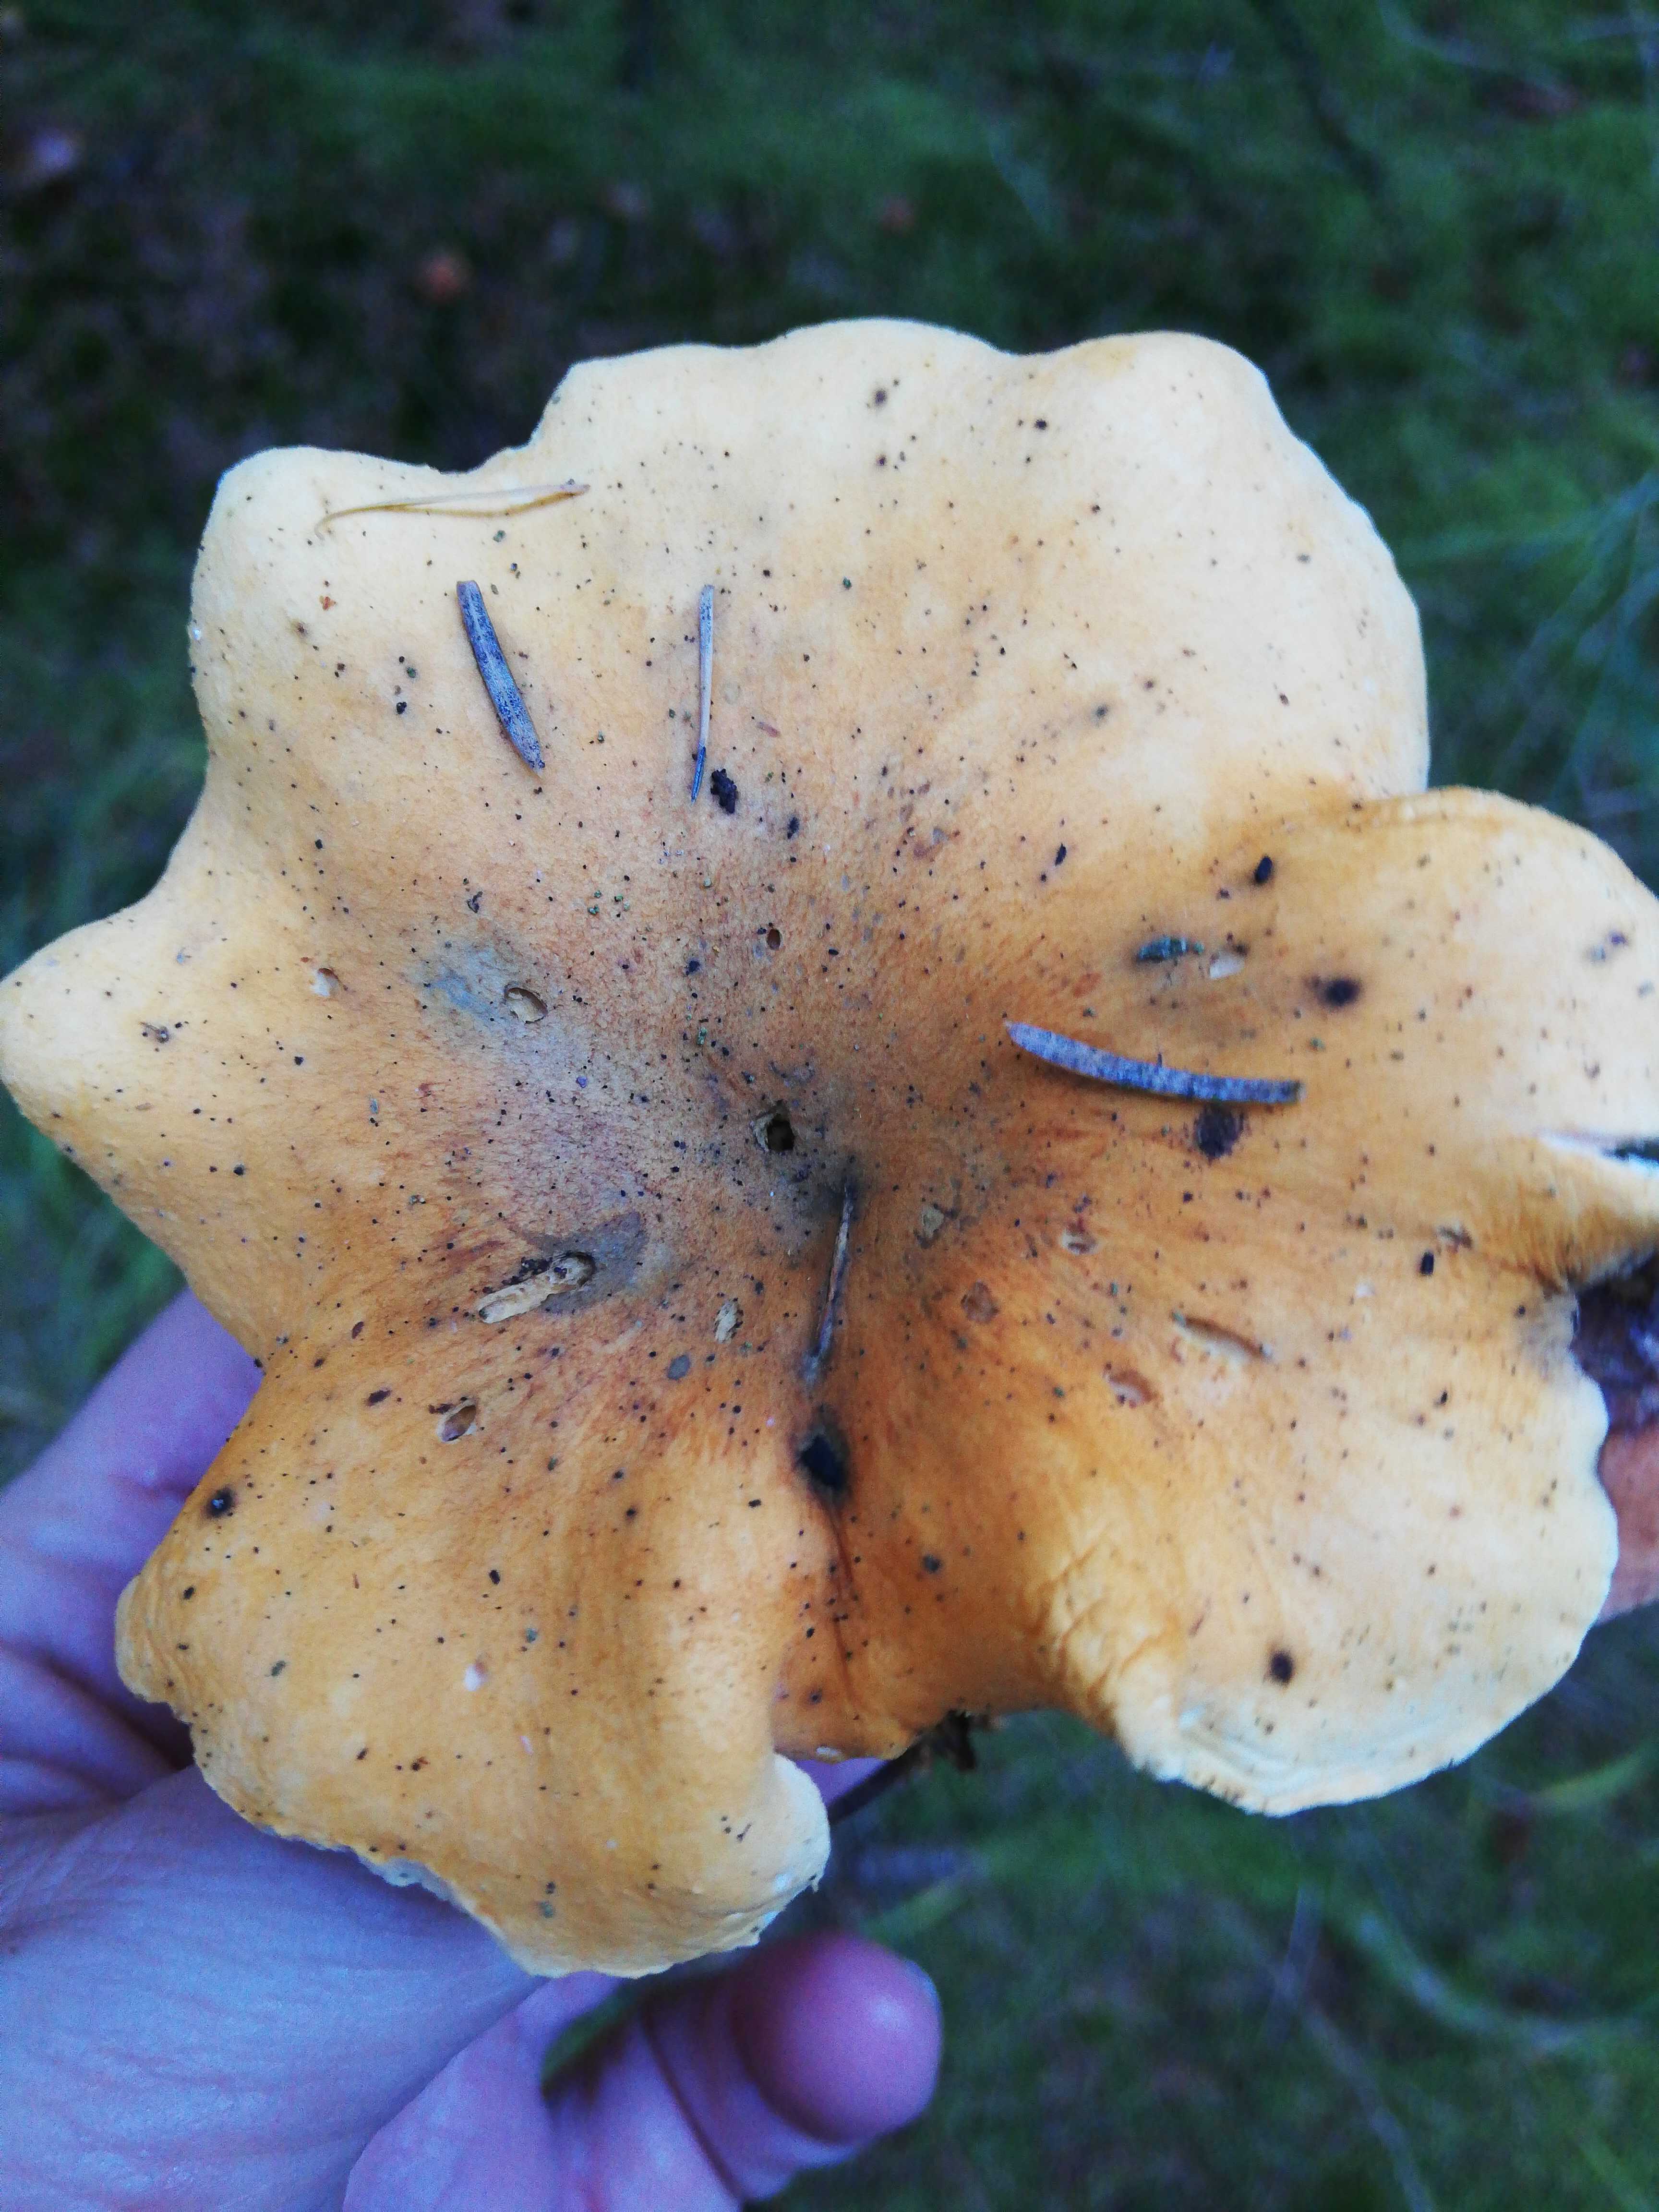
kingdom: Fungi
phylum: Basidiomycota
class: Agaricomycetes
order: Boletales
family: Hygrophoropsidaceae
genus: Hygrophoropsis
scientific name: Hygrophoropsis aurantiaca
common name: almindelig orangekantarel
